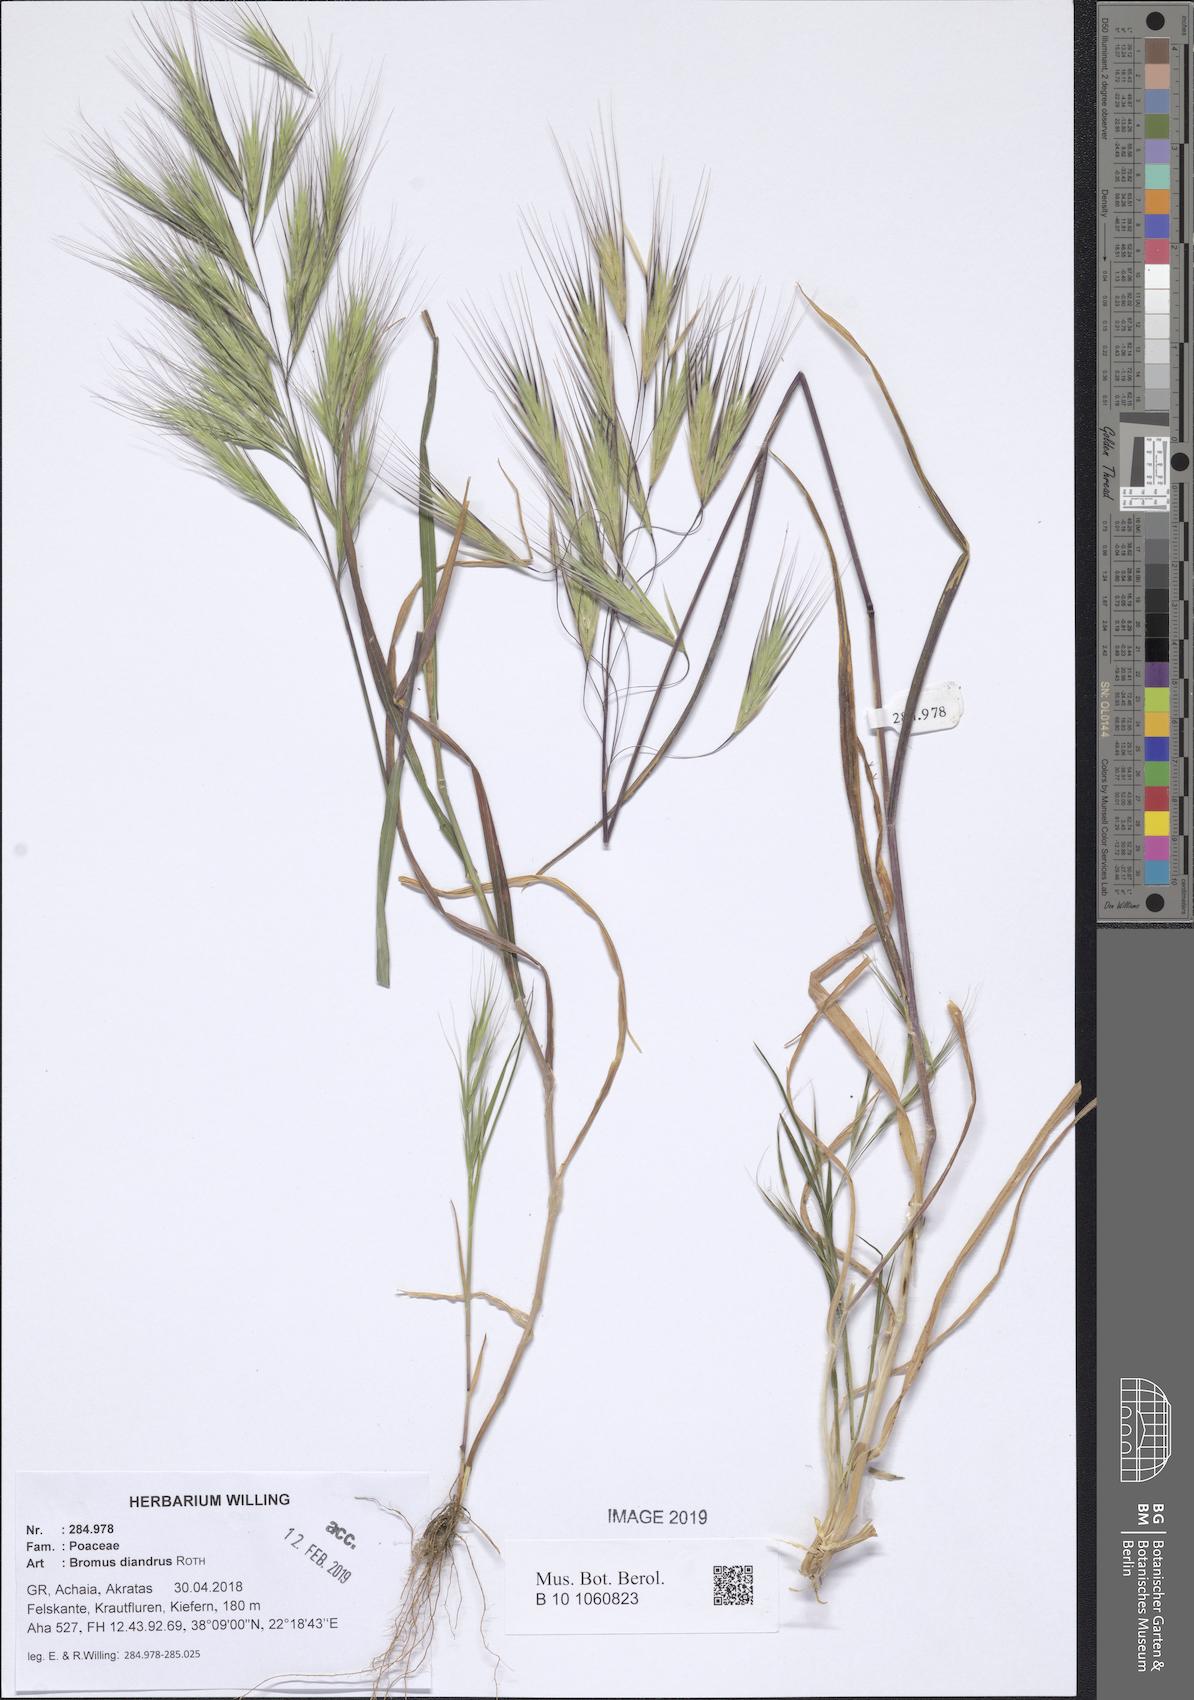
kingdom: Plantae
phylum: Tracheophyta
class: Liliopsida
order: Poales
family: Poaceae
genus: Bromus
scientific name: Bromus diandrus
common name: Ripgut brome
